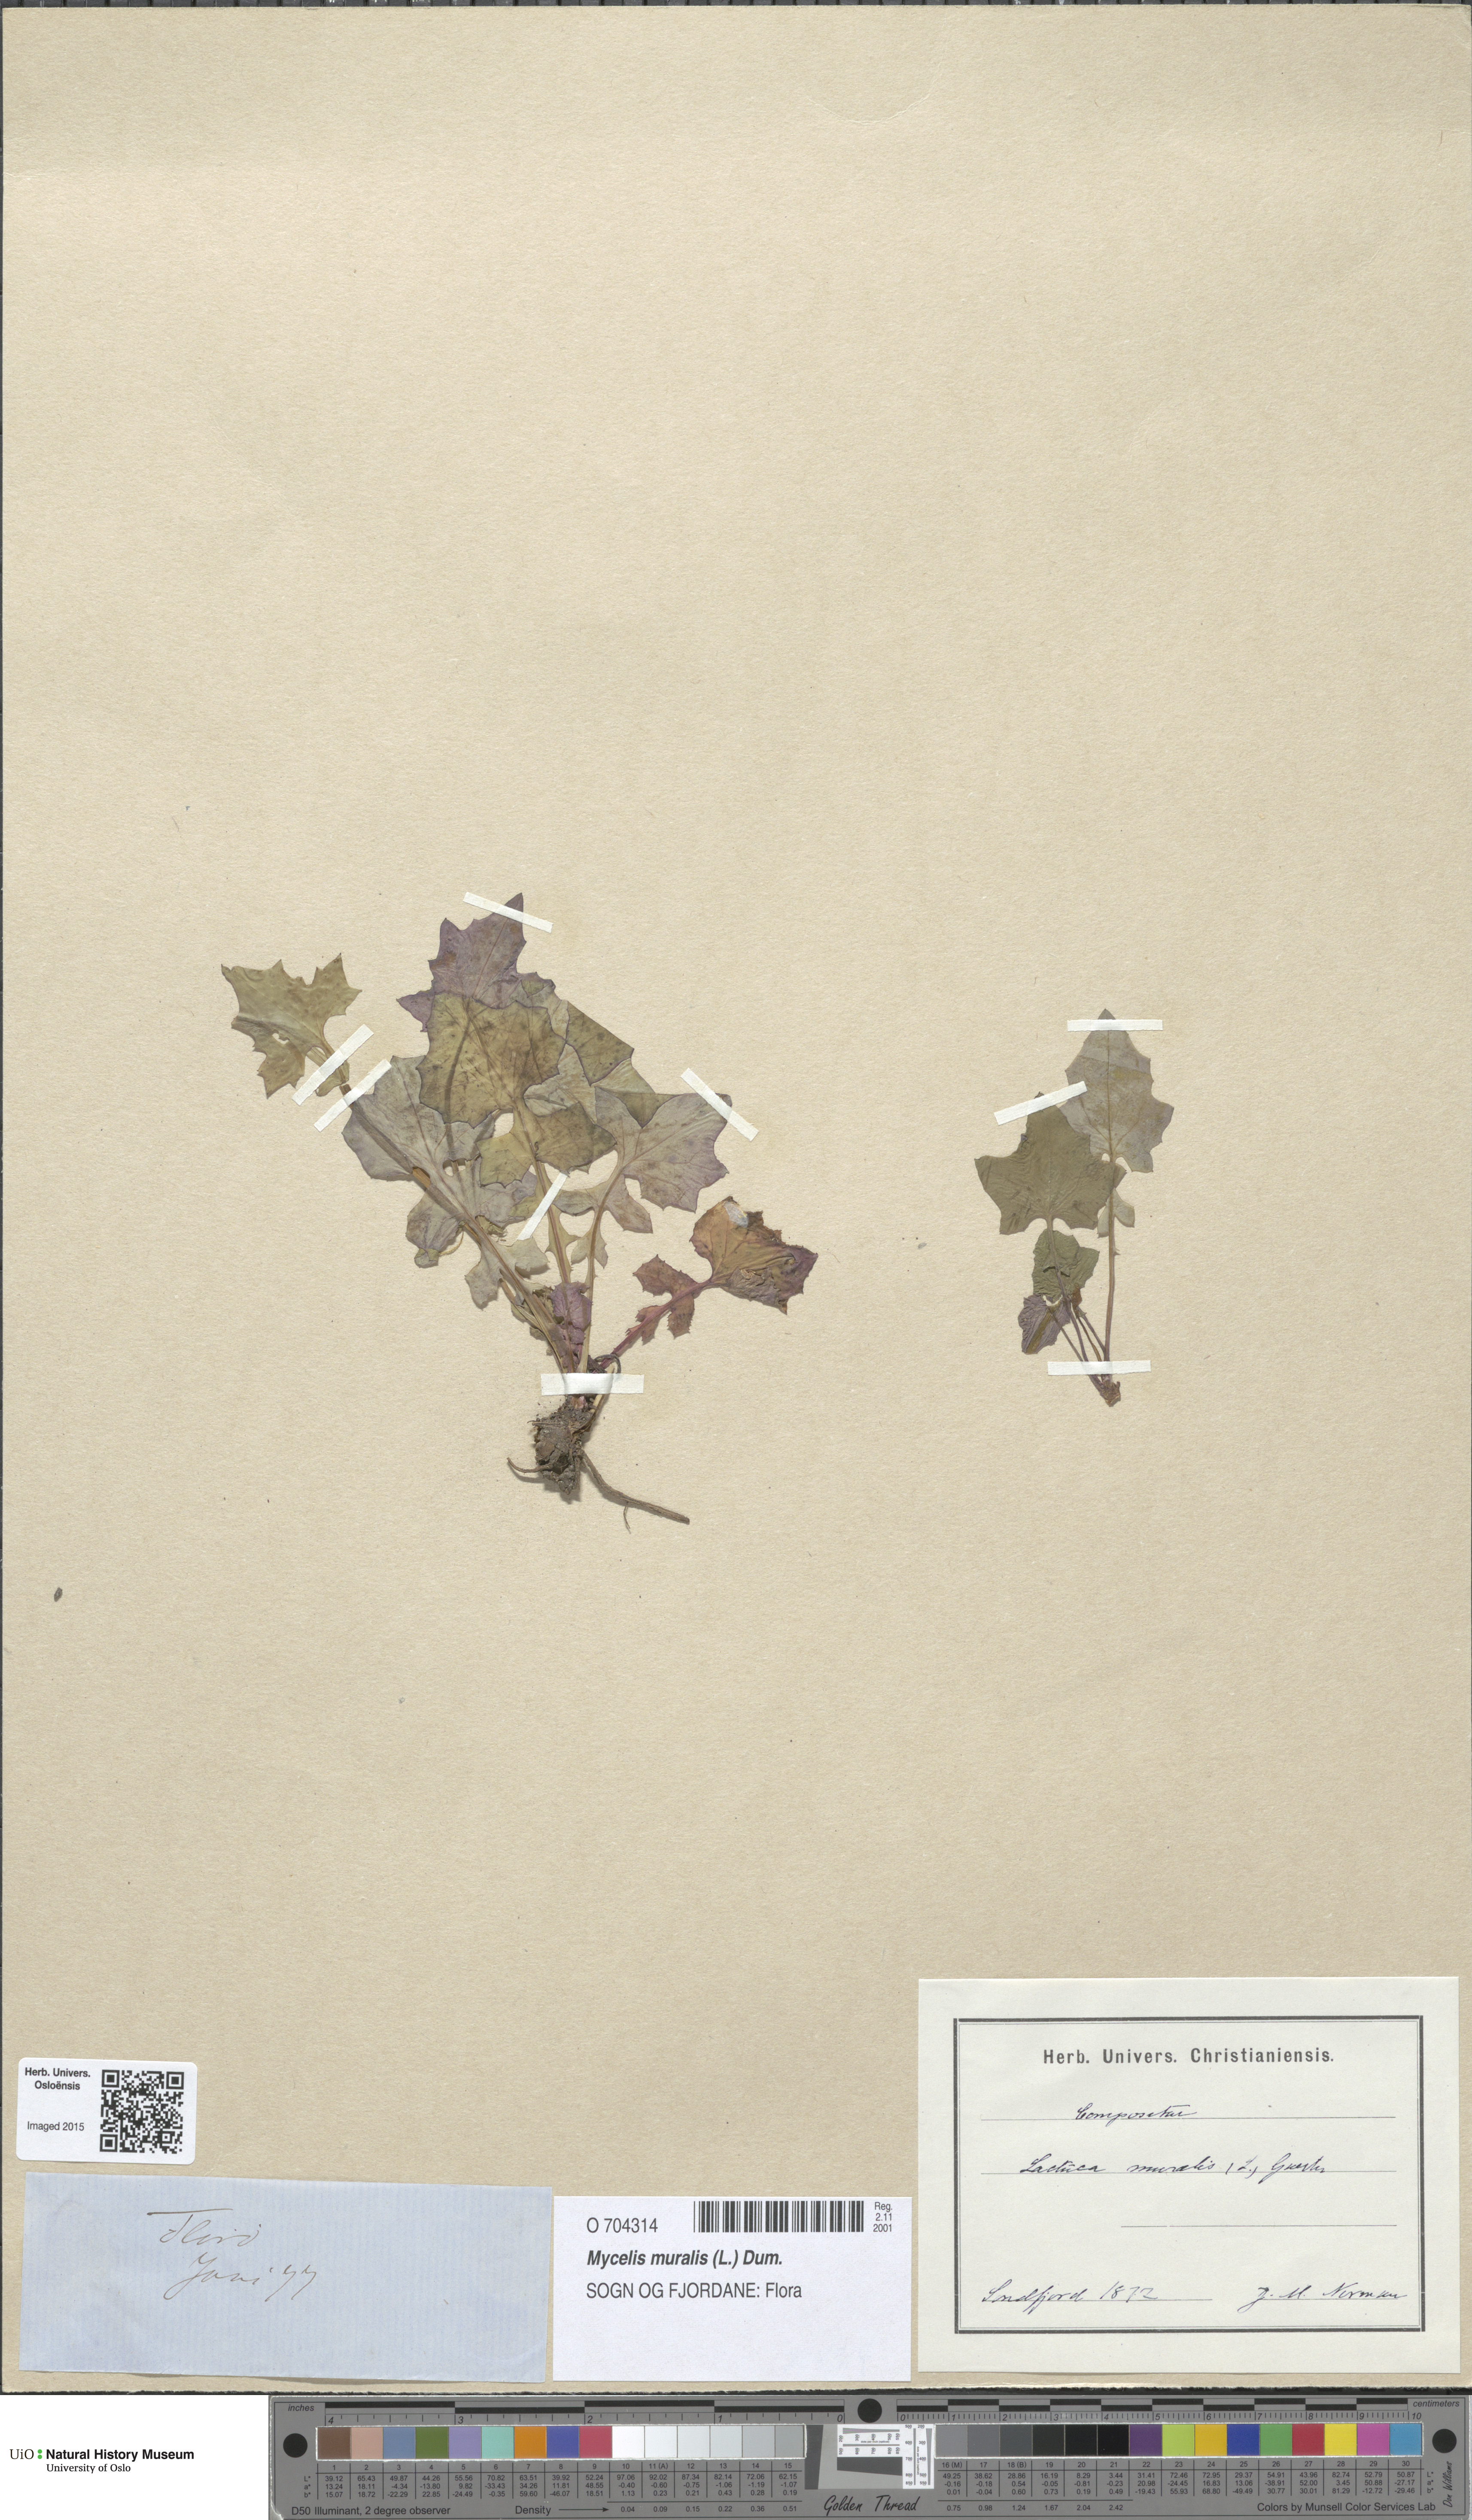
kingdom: Plantae
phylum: Tracheophyta
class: Magnoliopsida
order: Asterales
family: Asteraceae
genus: Mycelis
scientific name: Mycelis muralis
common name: Wall lettuce
